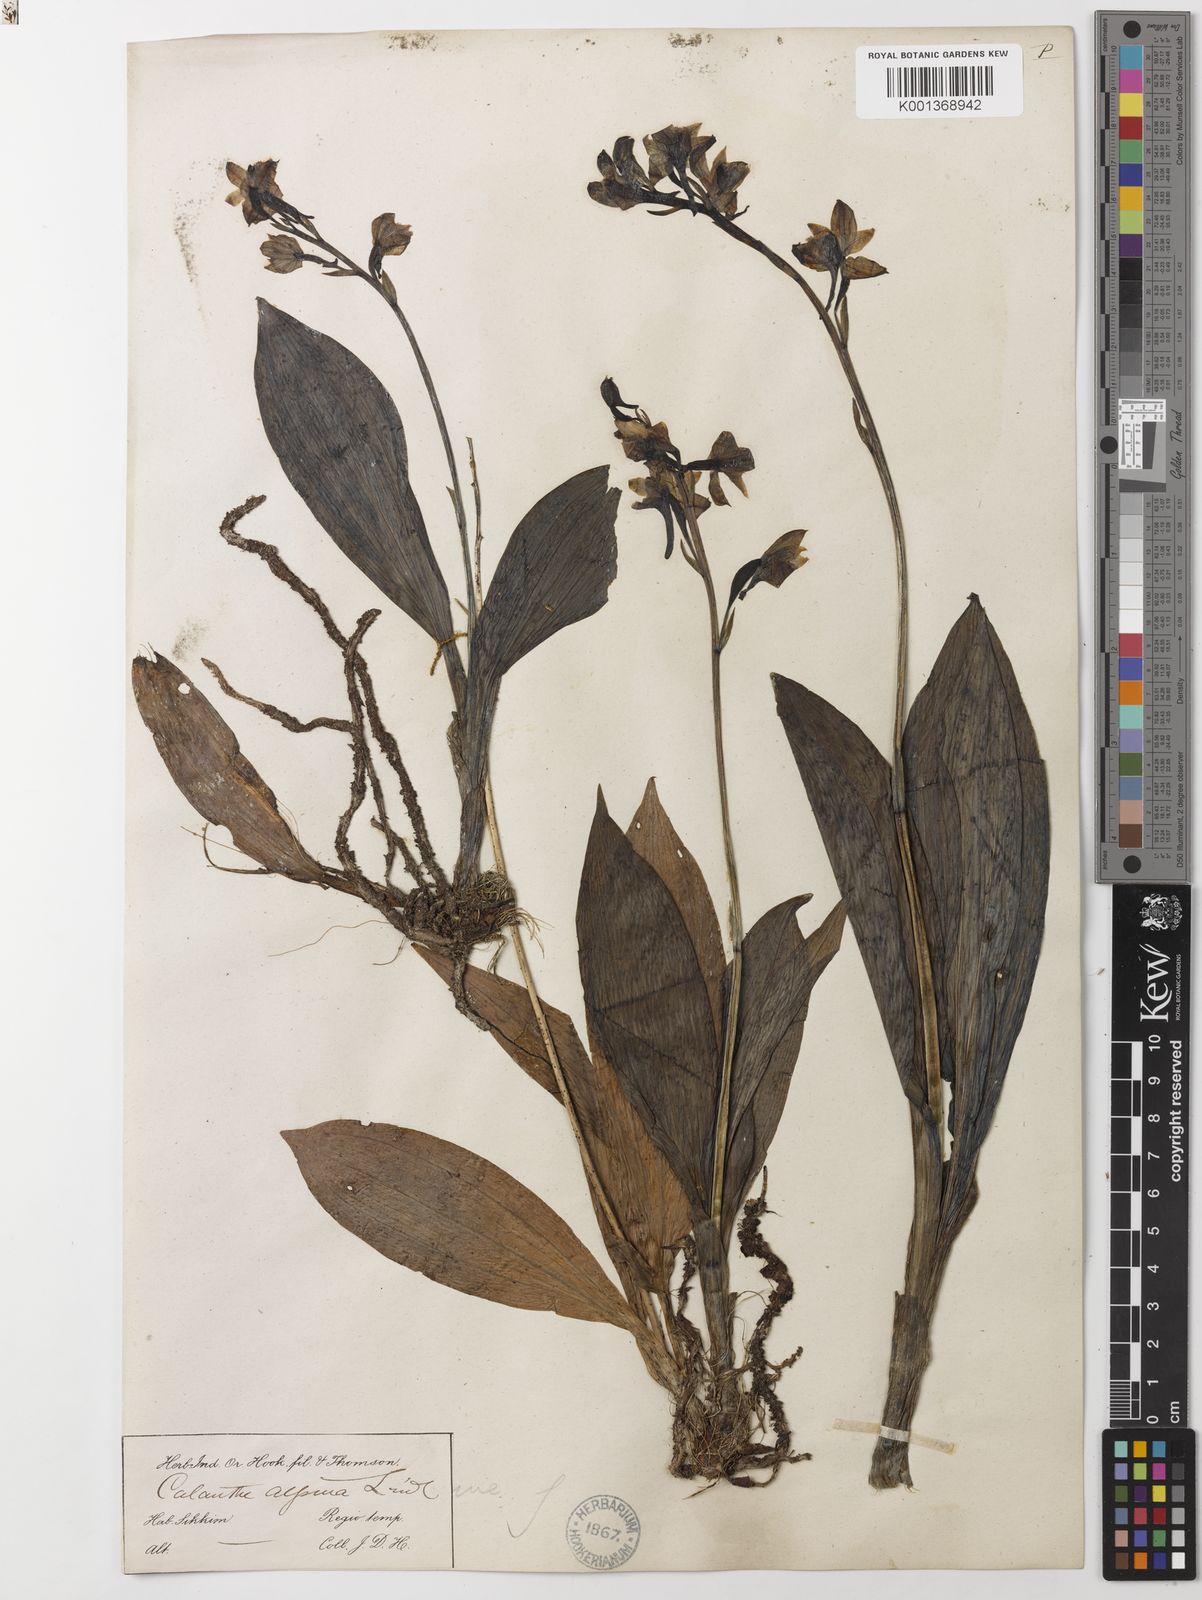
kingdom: Plantae
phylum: Tracheophyta
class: Liliopsida
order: Asparagales
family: Orchidaceae
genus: Calanthe
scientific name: Calanthe alpina
